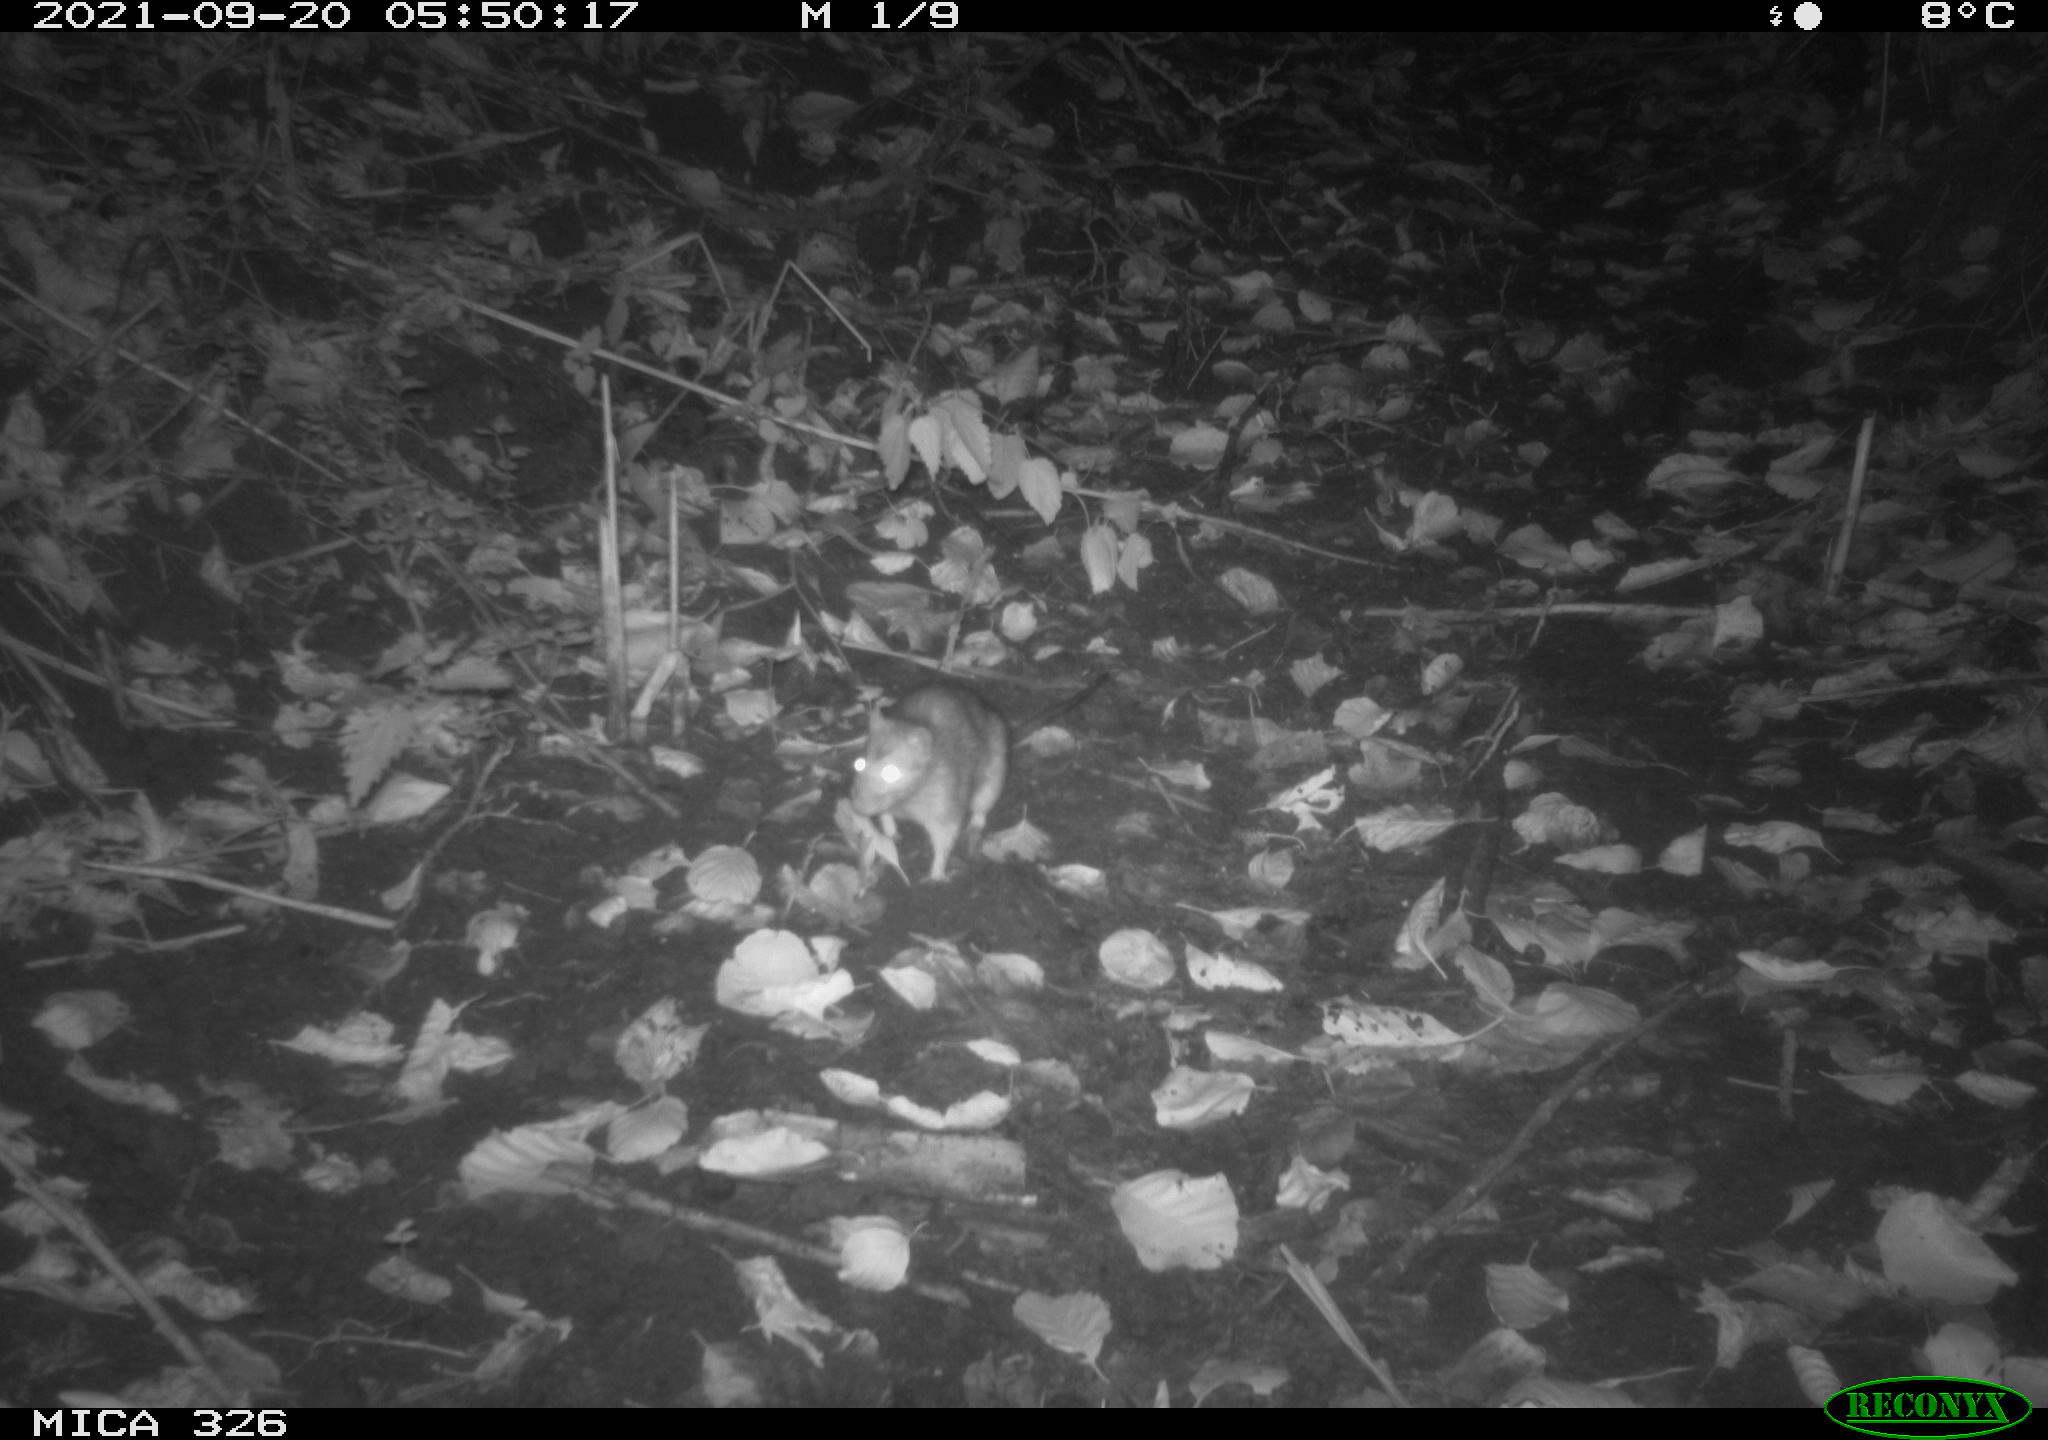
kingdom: Animalia
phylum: Chordata
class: Mammalia
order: Rodentia
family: Muridae
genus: Rattus
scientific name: Rattus norvegicus
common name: Brown rat
